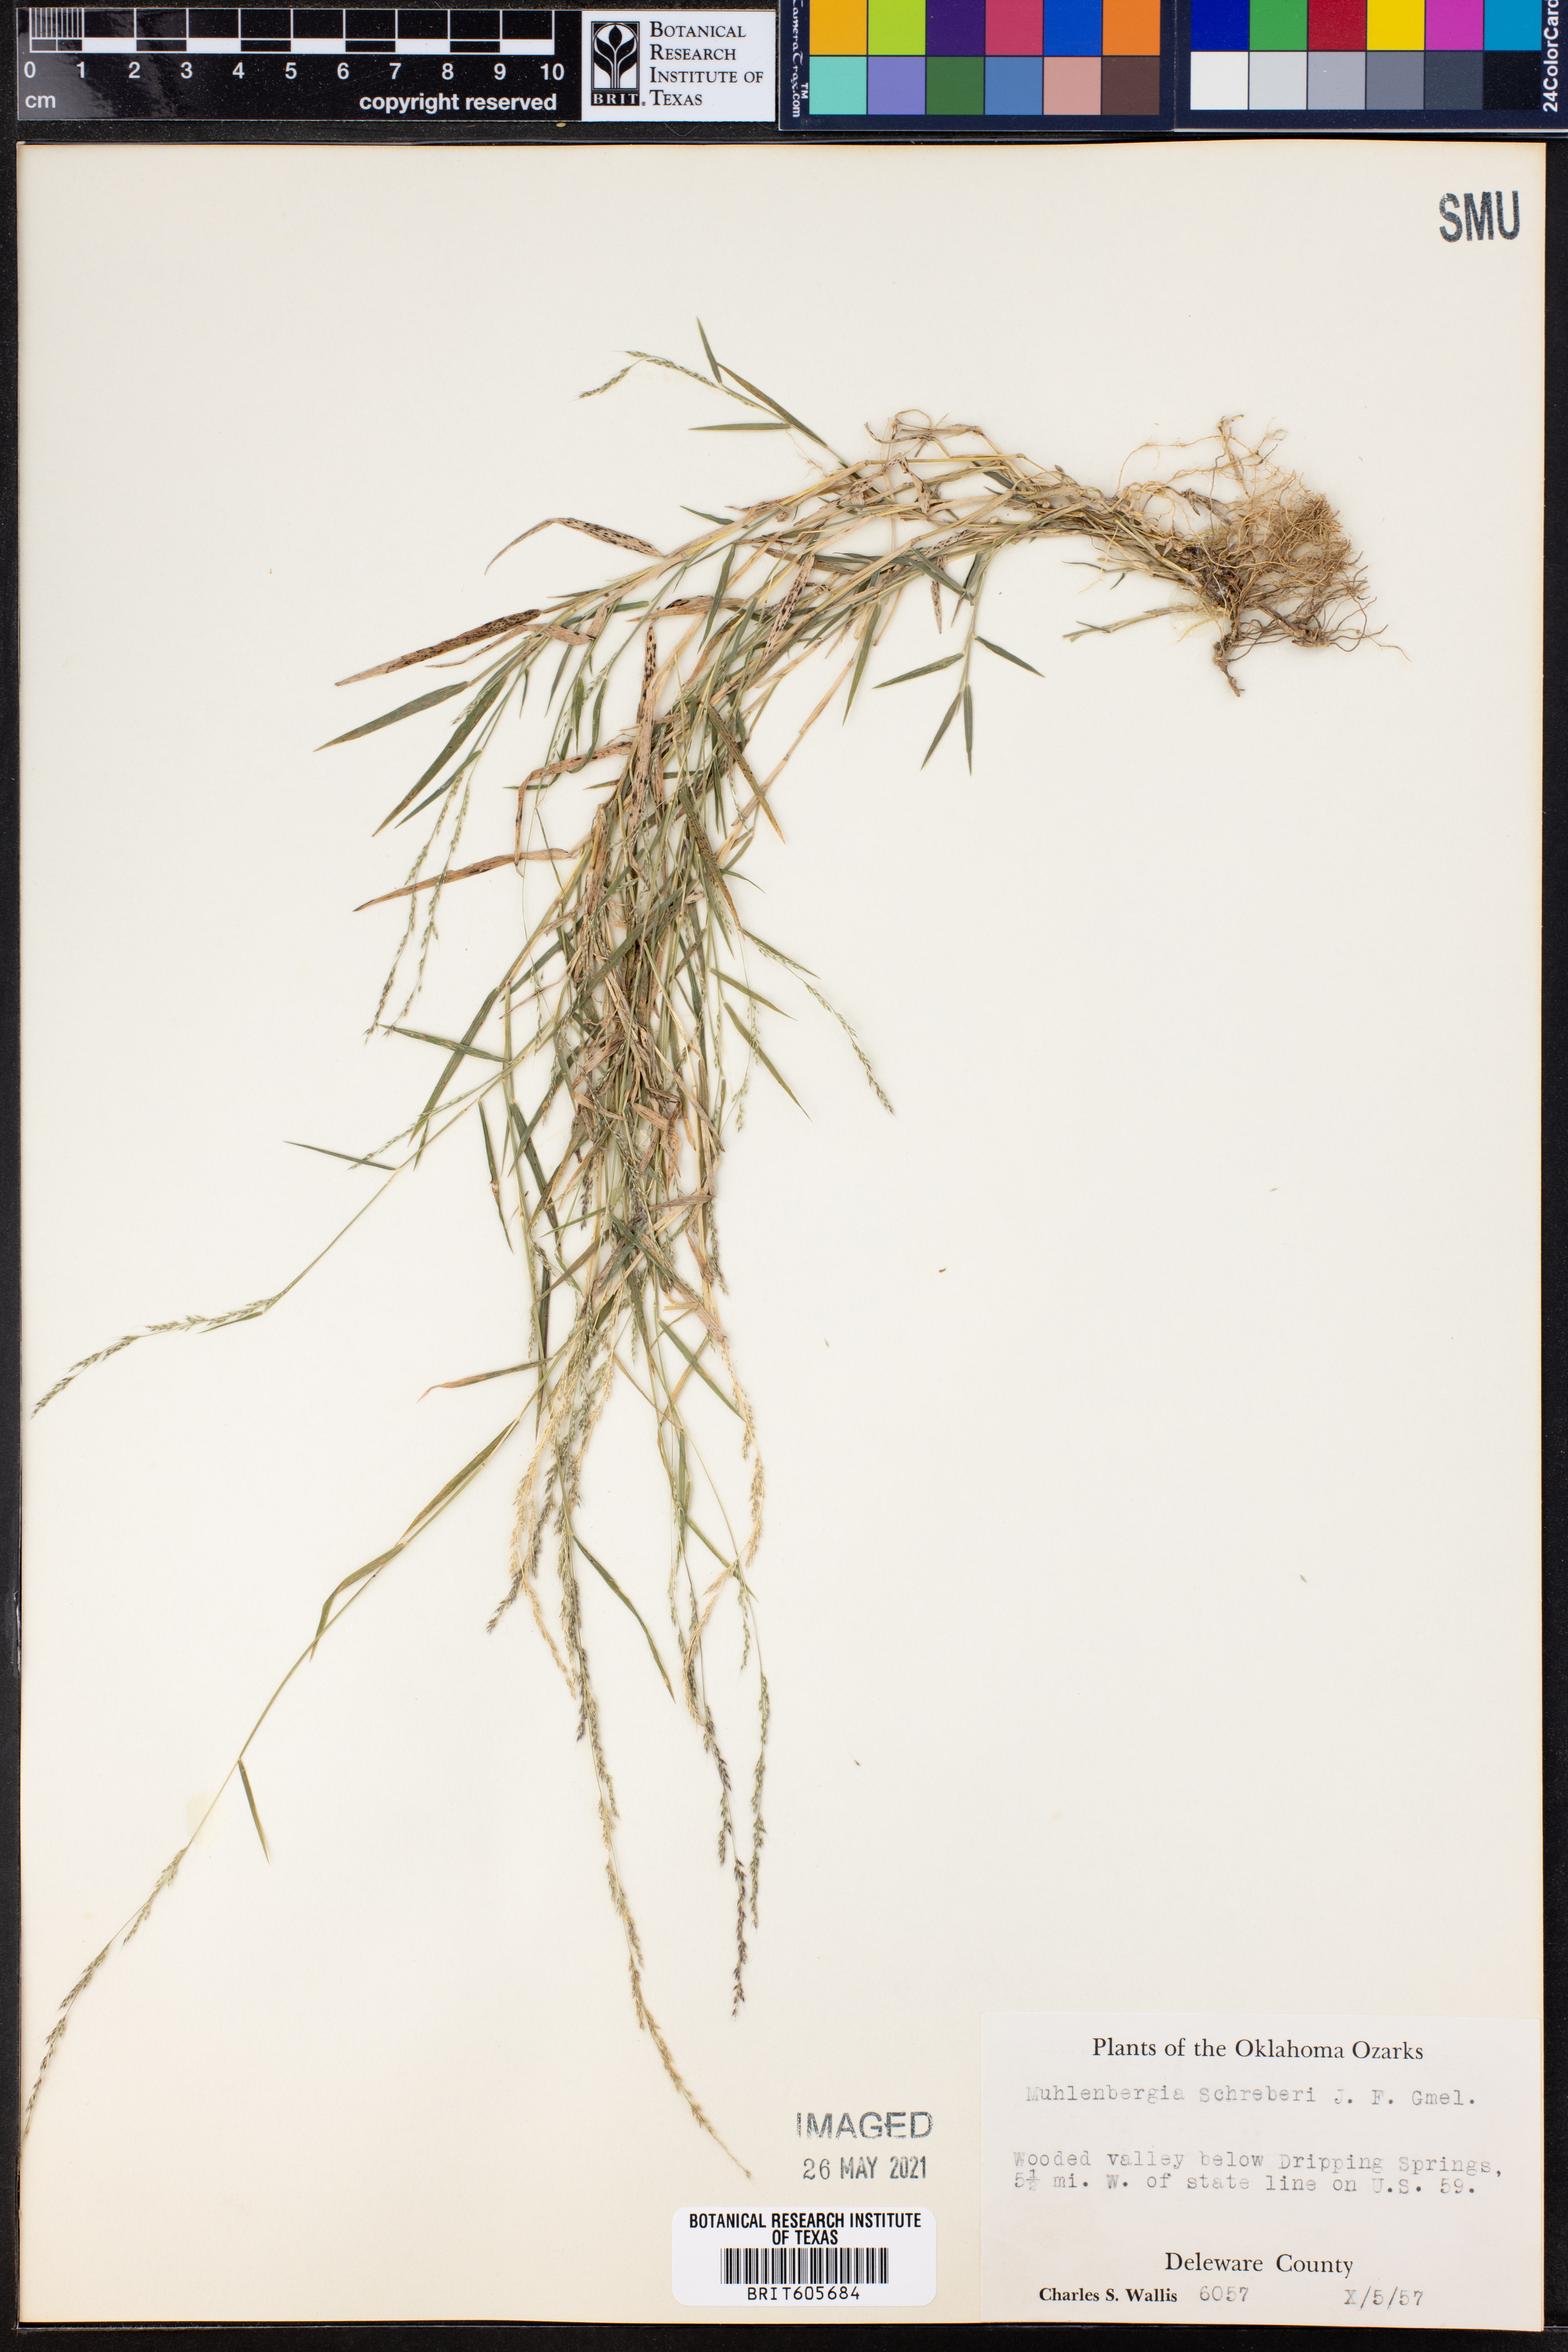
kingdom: Plantae
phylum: Tracheophyta
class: Liliopsida
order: Poales
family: Poaceae
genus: Muhlenbergia
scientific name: Muhlenbergia schreberi
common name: Nimblewill
